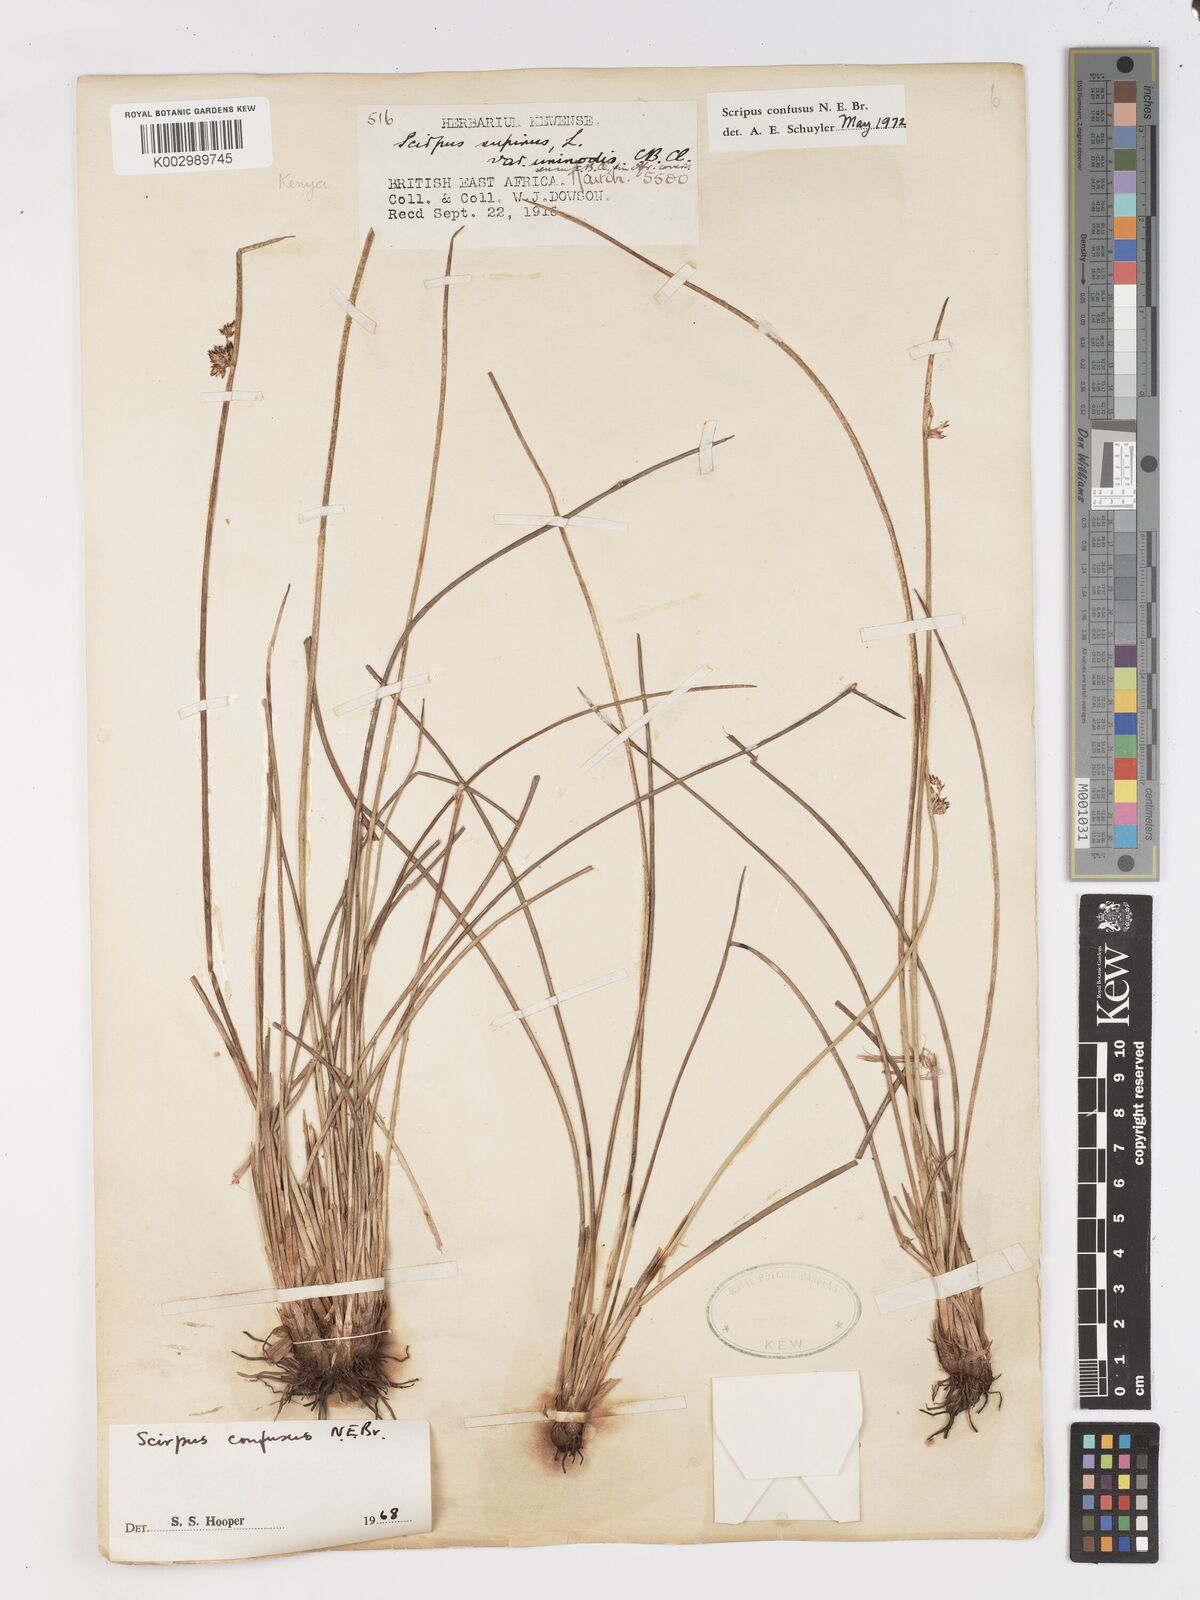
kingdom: Plantae
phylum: Tracheophyta
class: Liliopsida
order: Poales
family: Cyperaceae
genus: Schoenoplectiella
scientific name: Schoenoplectiella confusa
